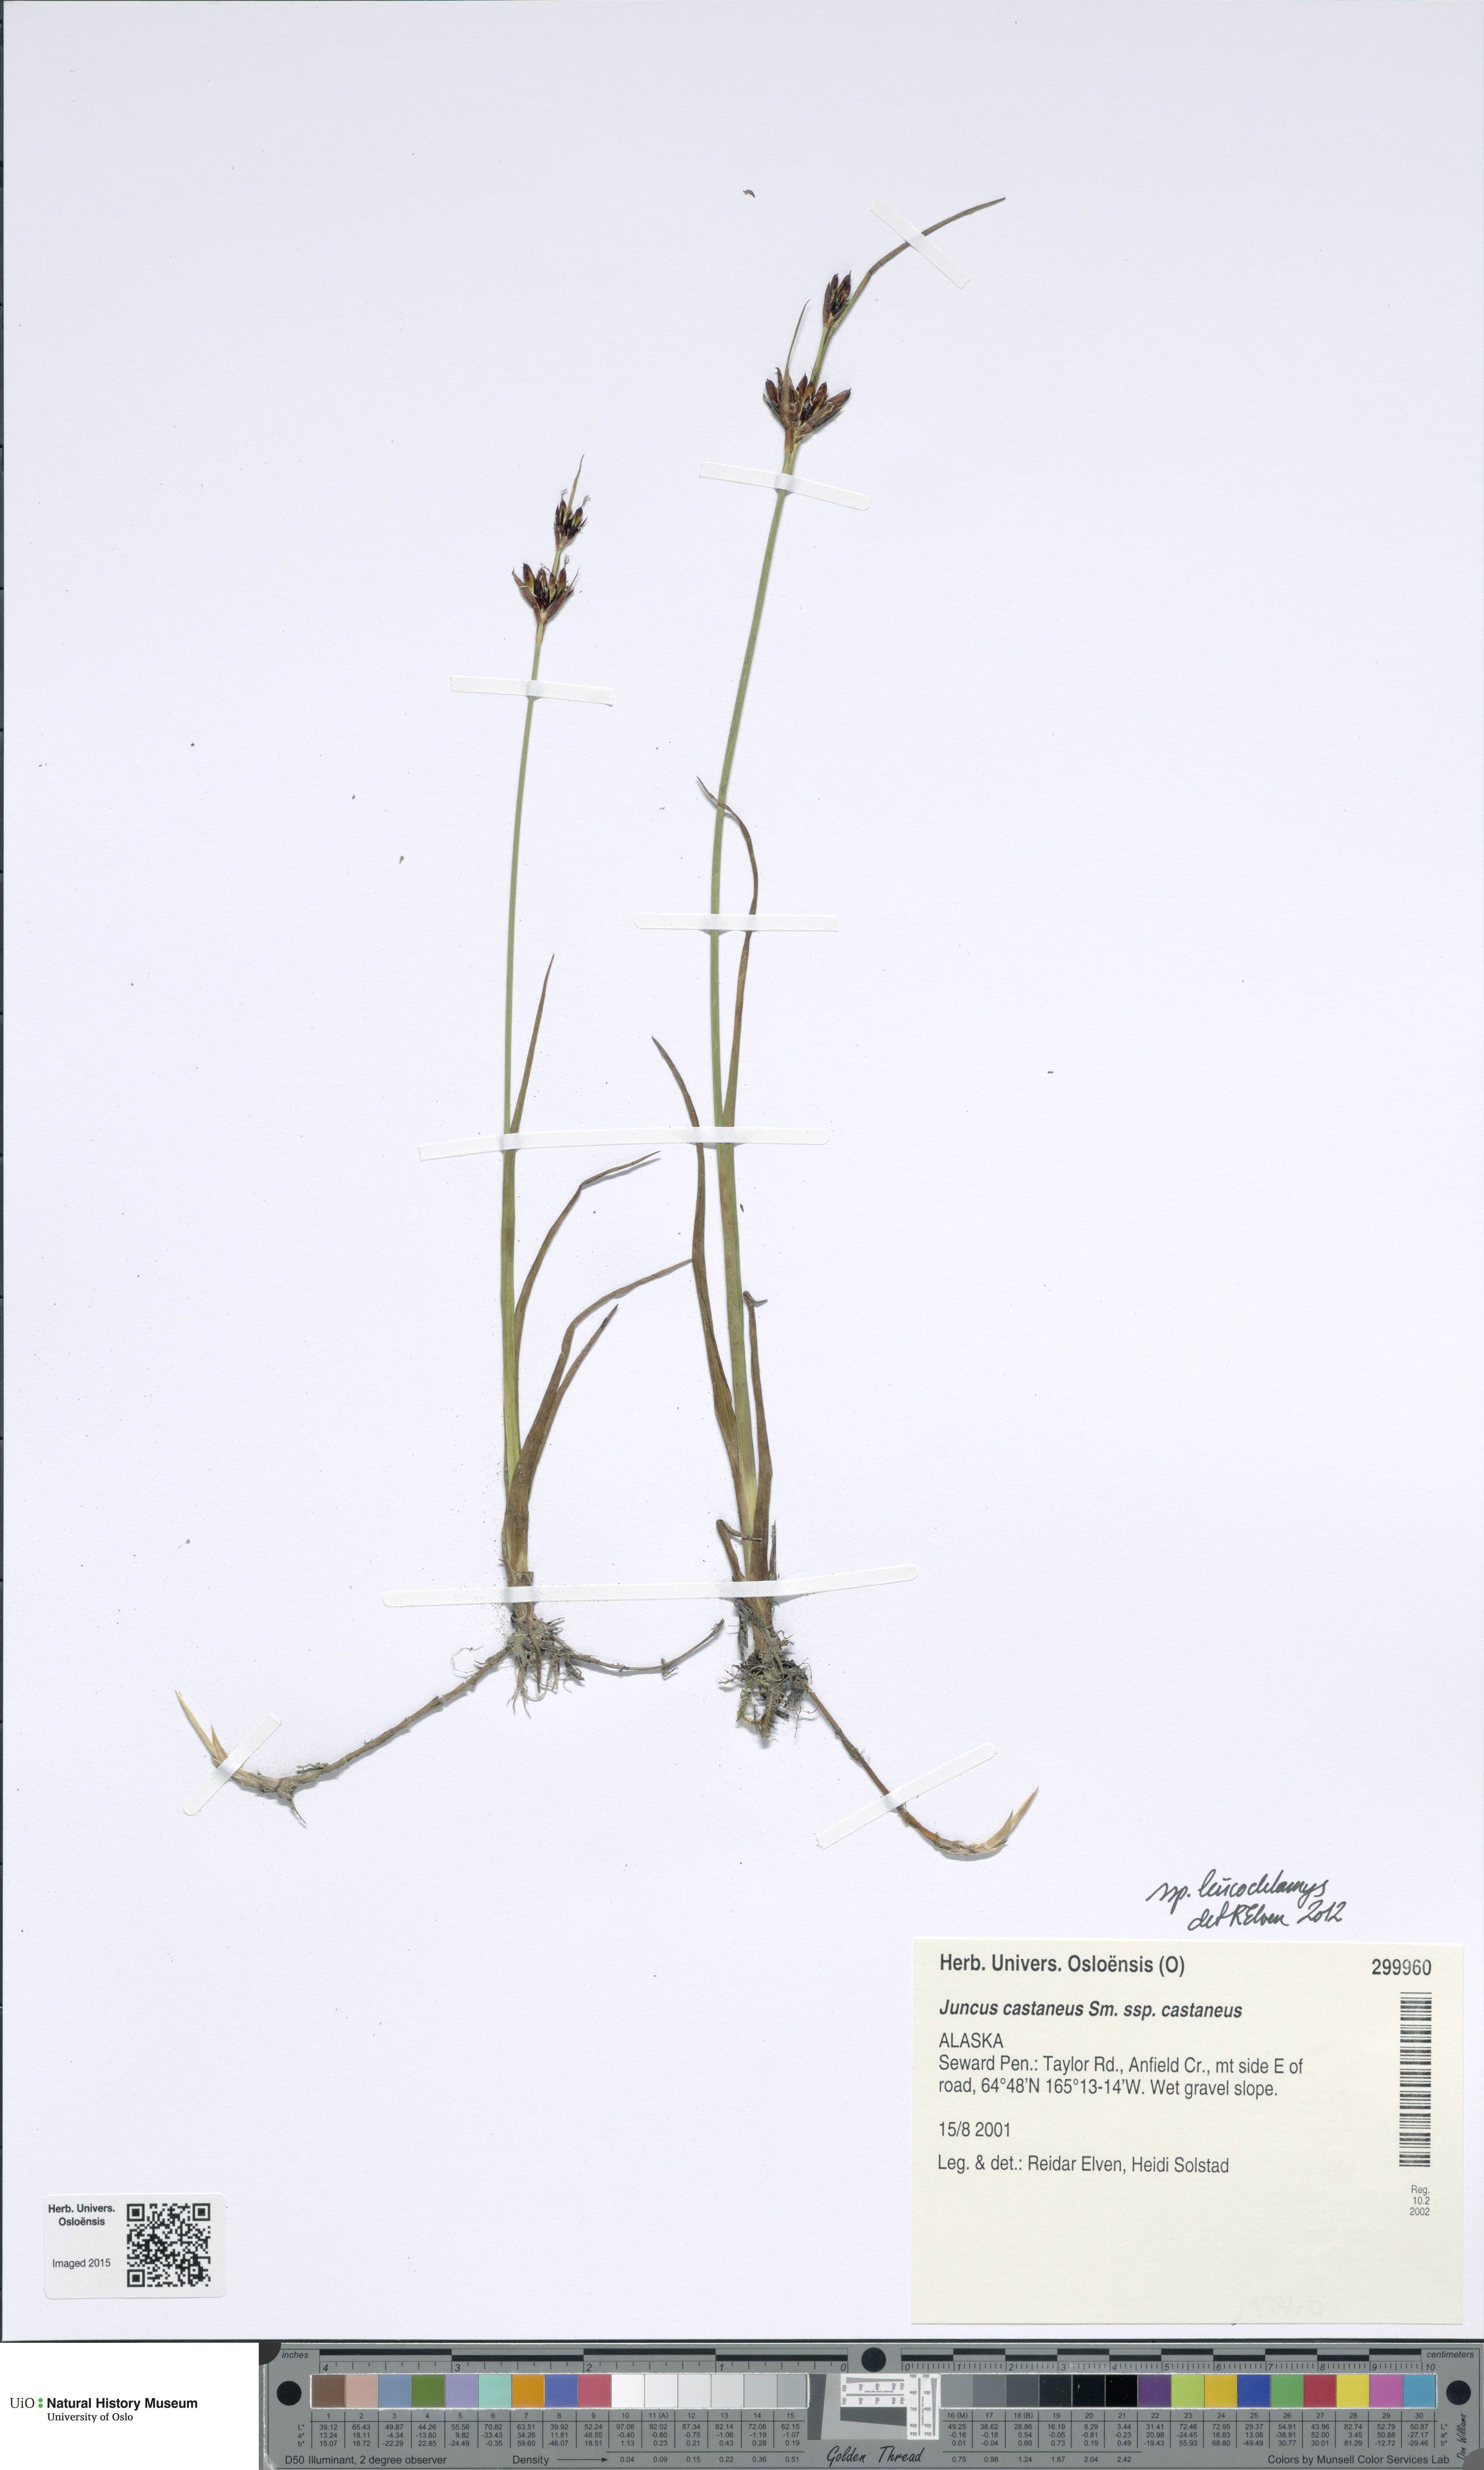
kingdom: Plantae
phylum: Tracheophyta
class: Liliopsida
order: Poales
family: Juncaceae
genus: Juncus
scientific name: Juncus castaneus
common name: Chestnut rush
